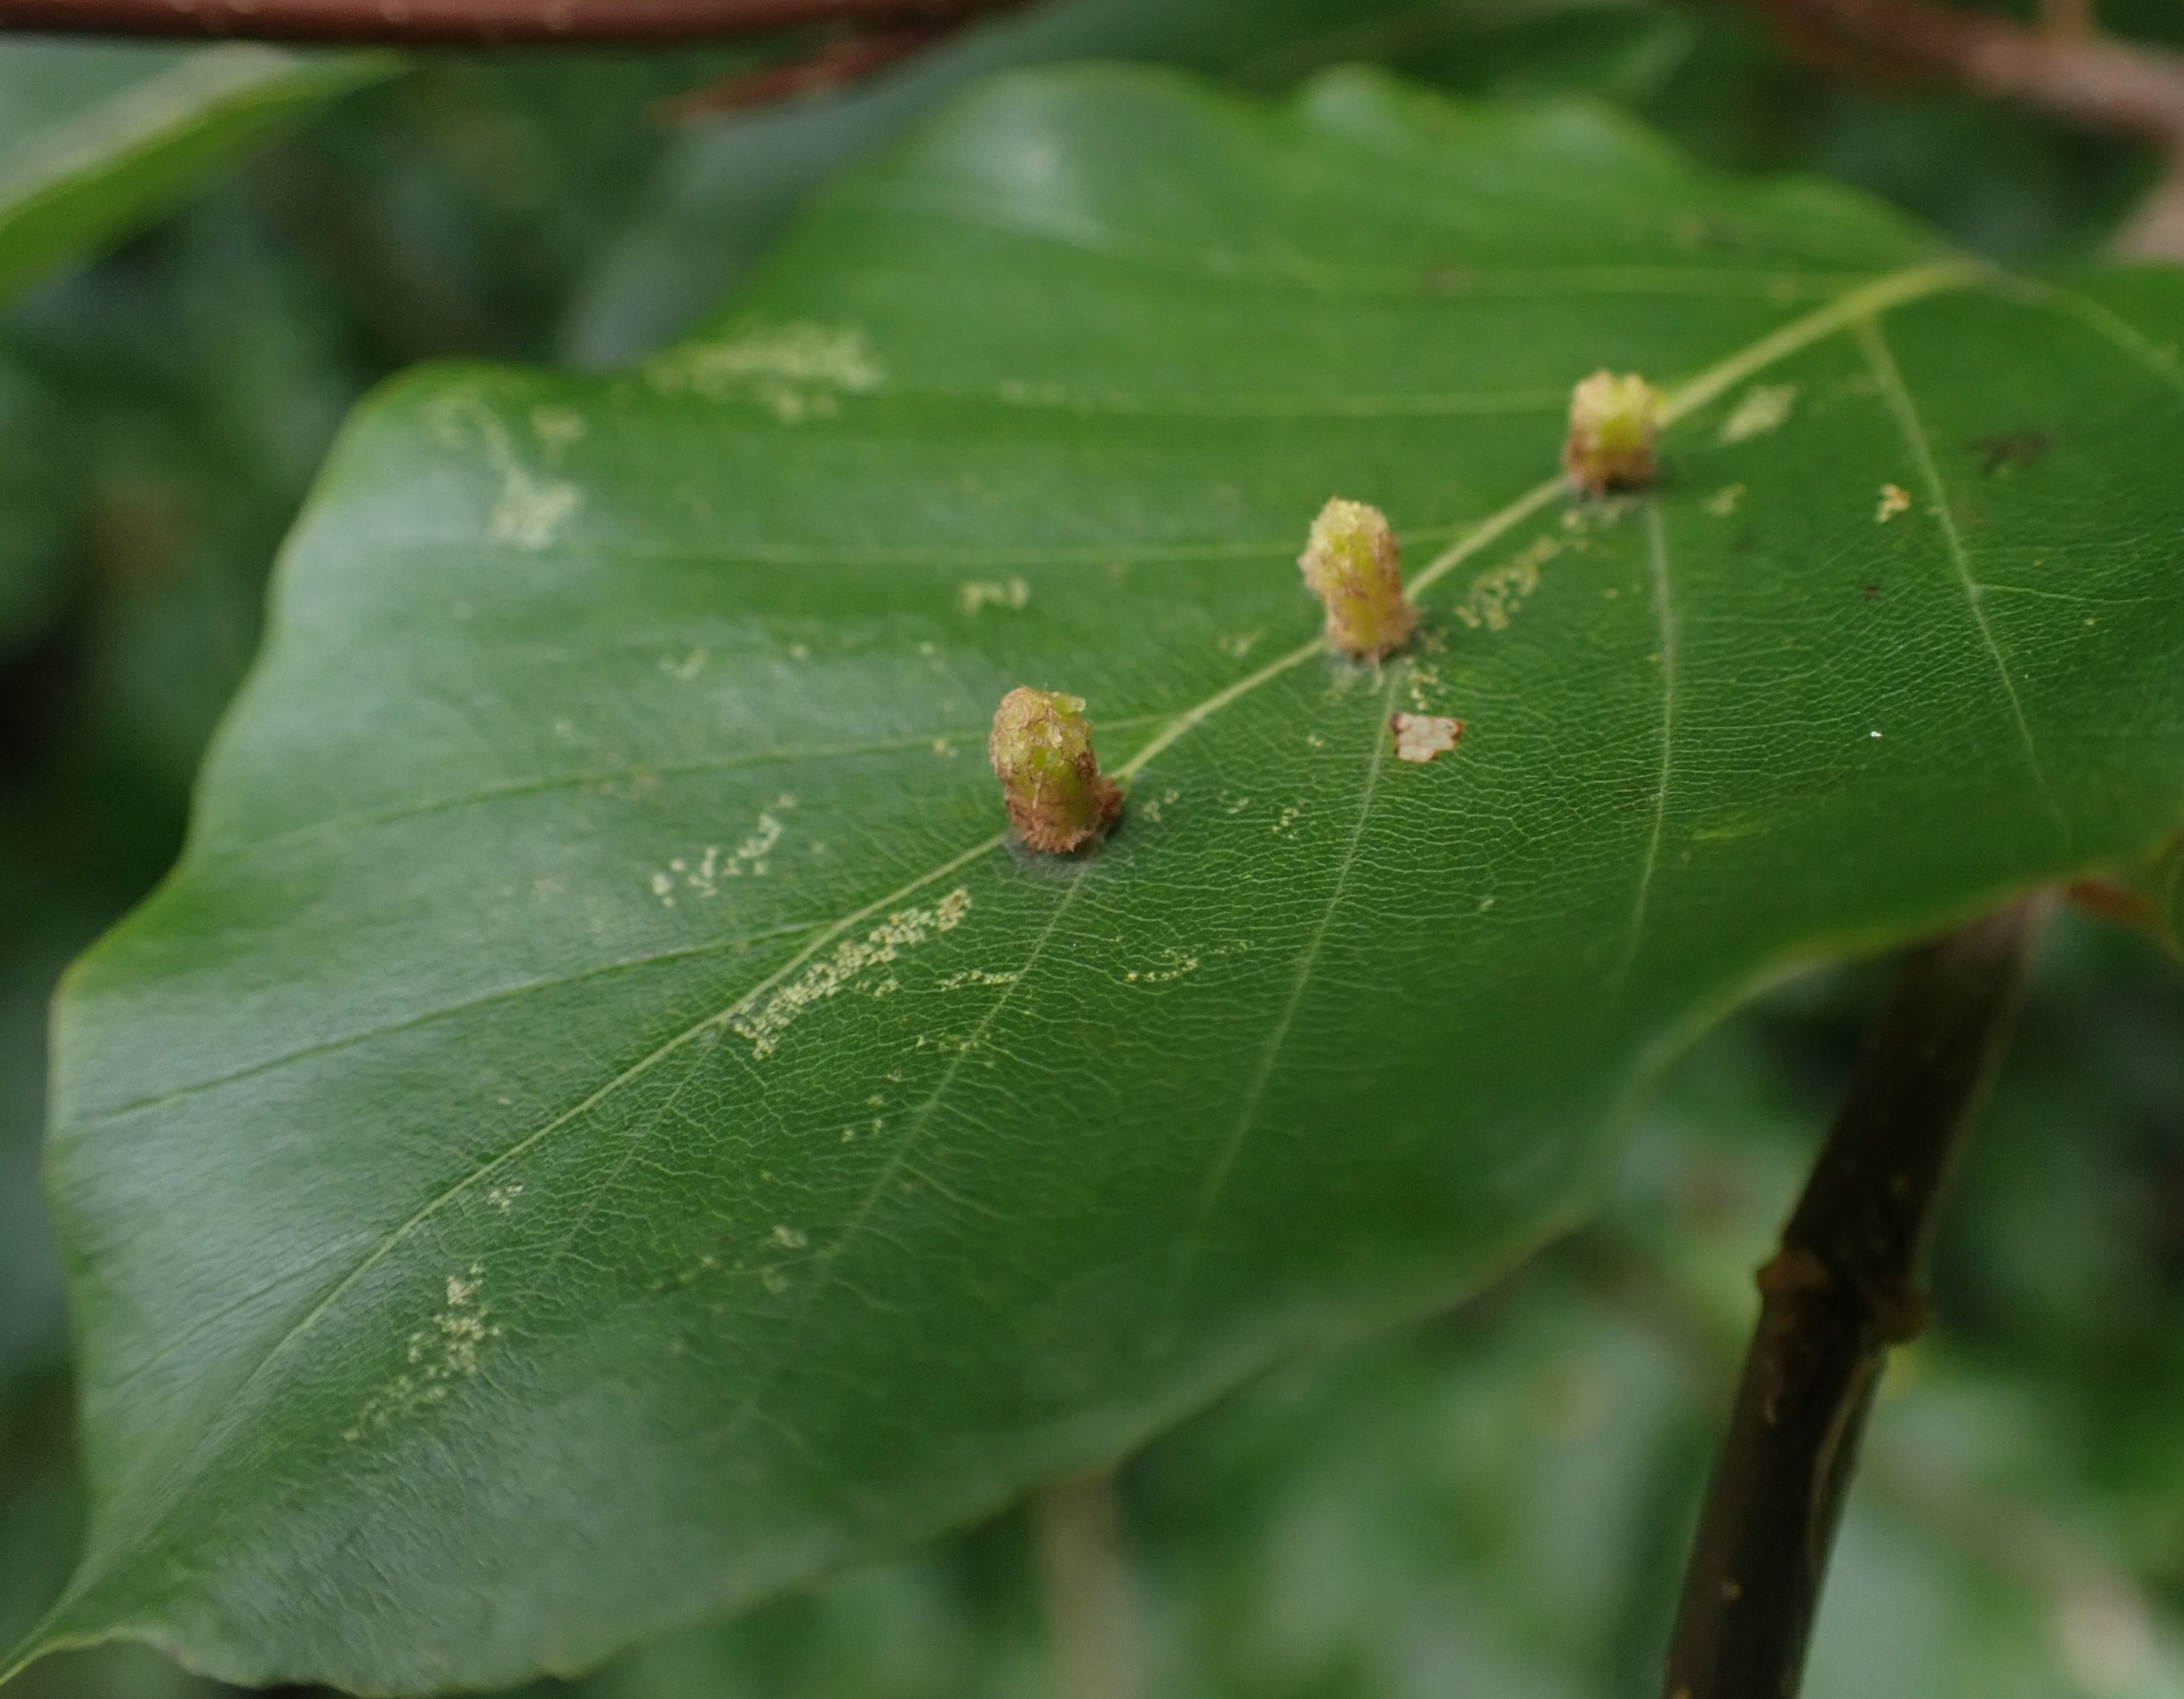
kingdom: Animalia
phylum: Arthropoda
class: Insecta
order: Diptera
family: Cecidomyiidae
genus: Hartigiola
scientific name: Hartigiola annulipes
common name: Skovtroldegalmyg
